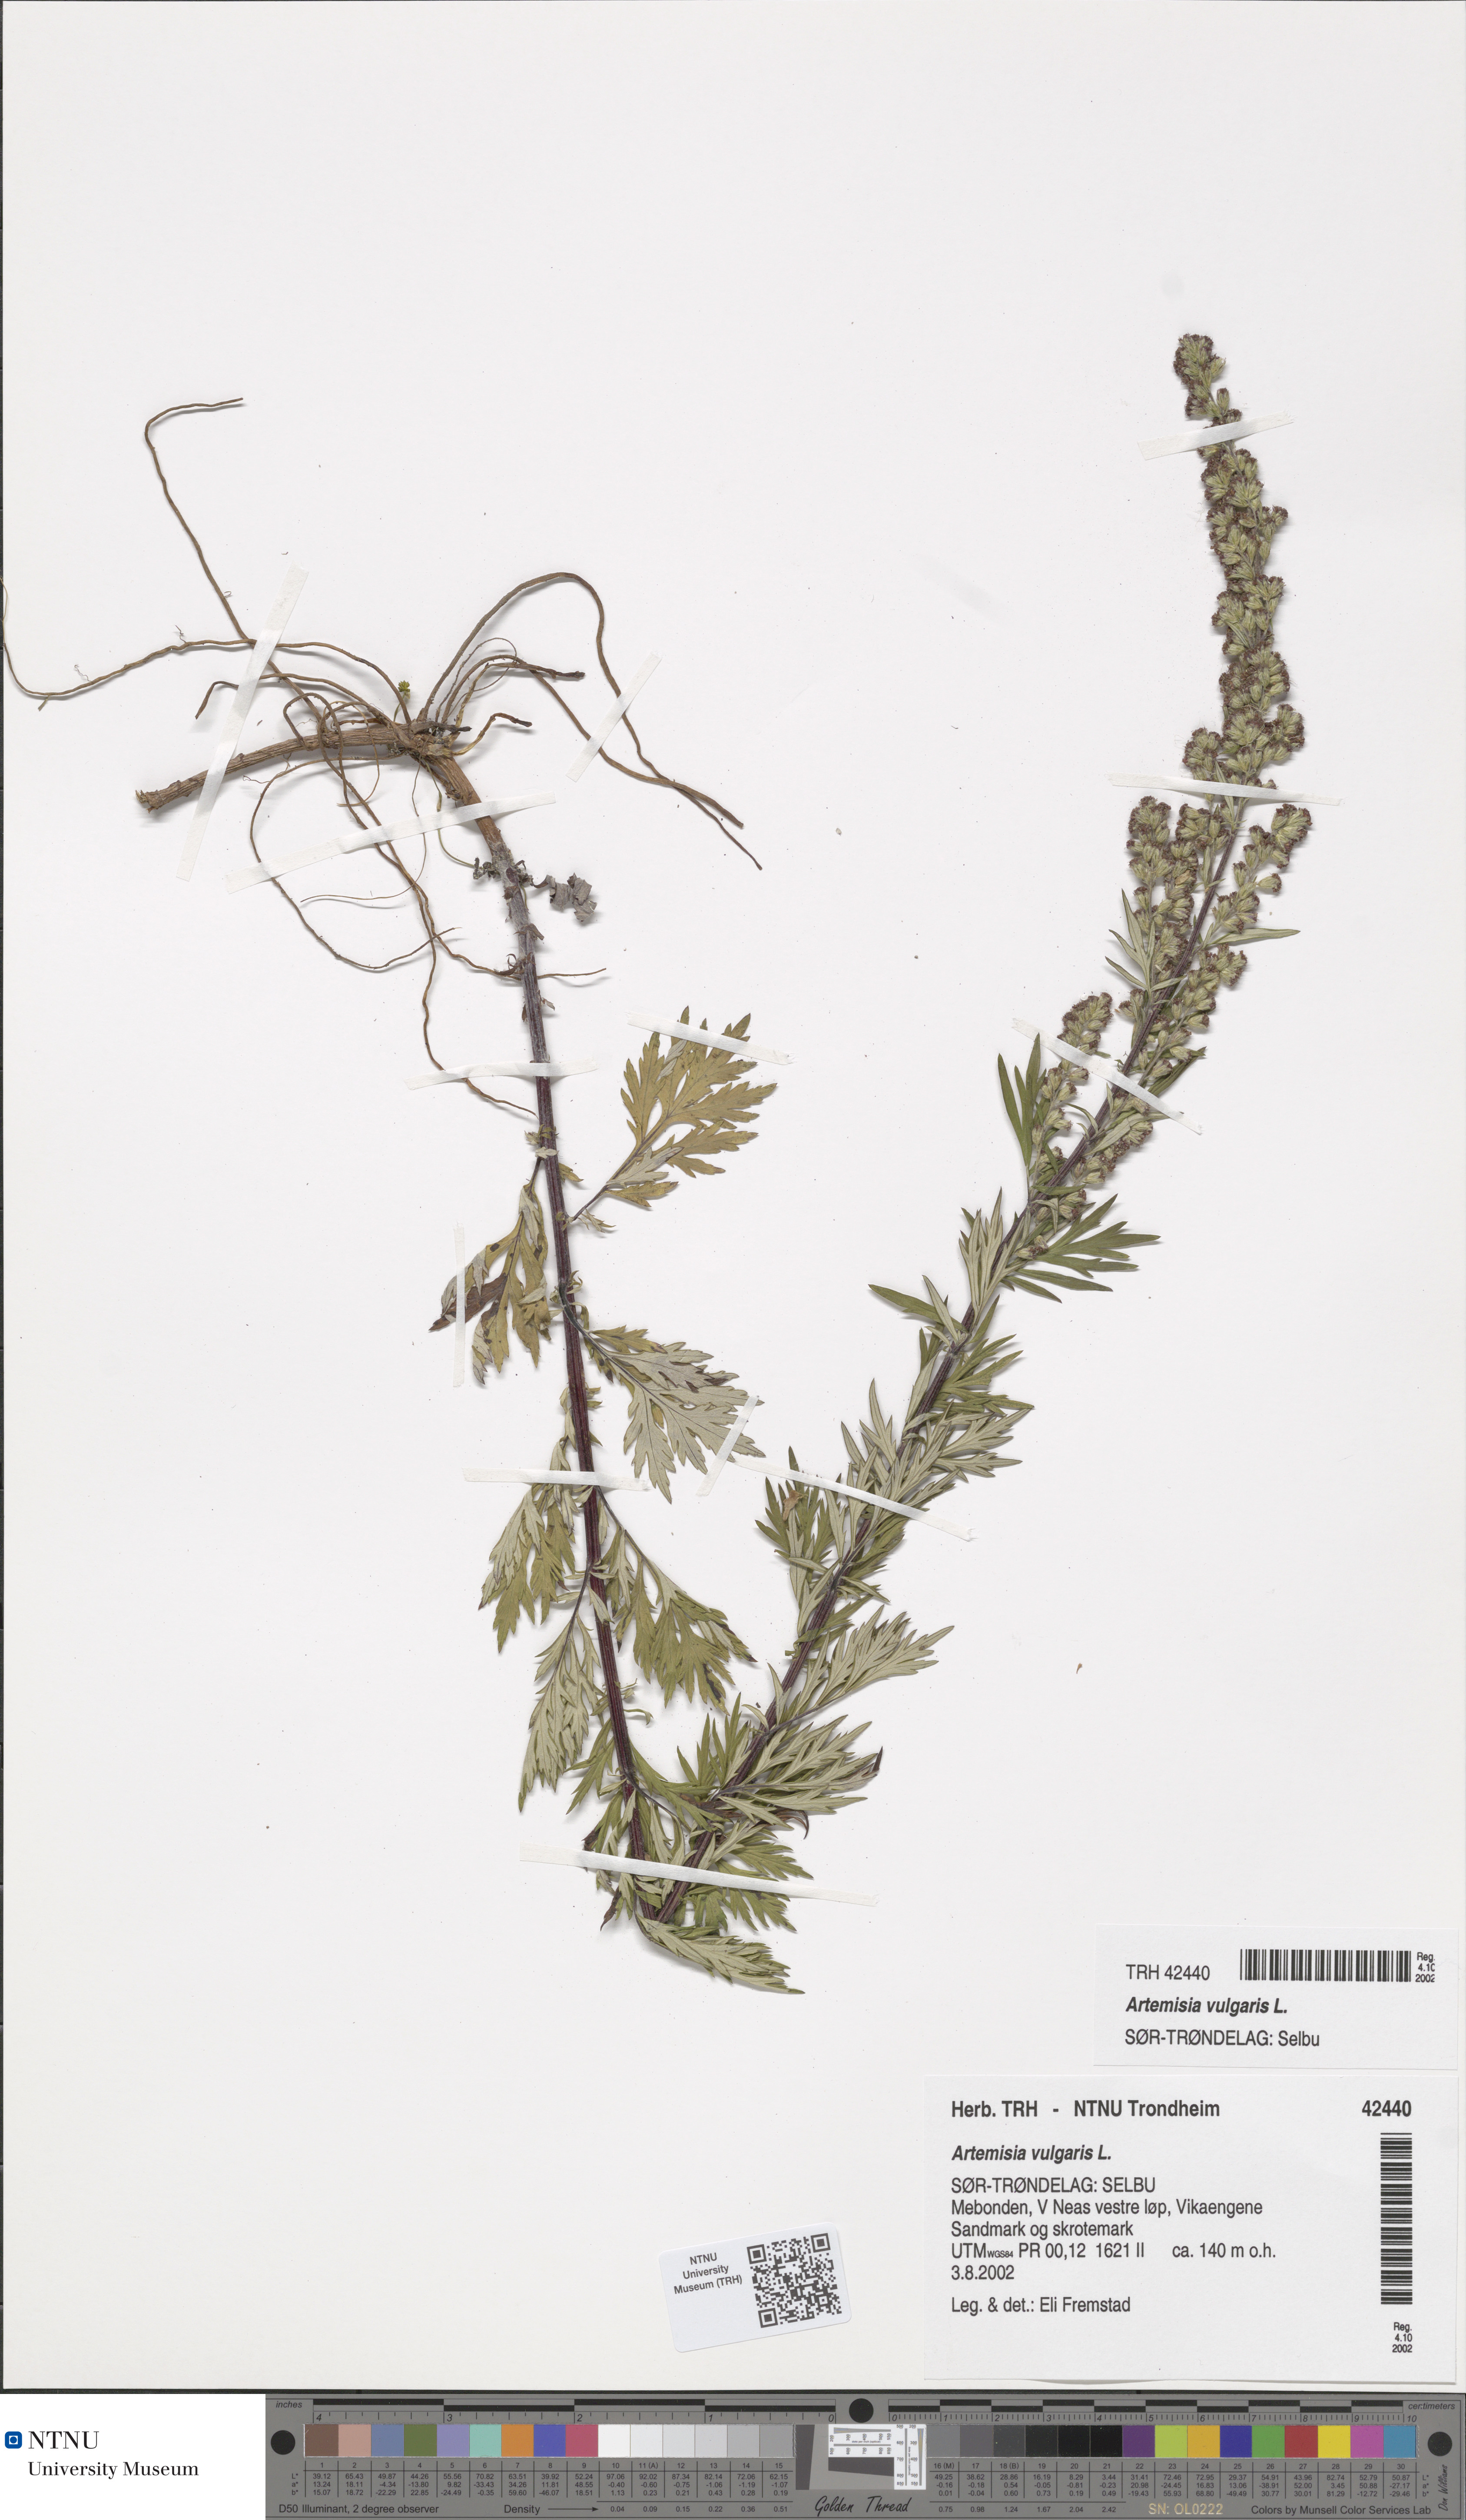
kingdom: Plantae
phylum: Tracheophyta
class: Magnoliopsida
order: Asterales
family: Asteraceae
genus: Artemisia
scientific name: Artemisia vulgaris
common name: Mugwort
